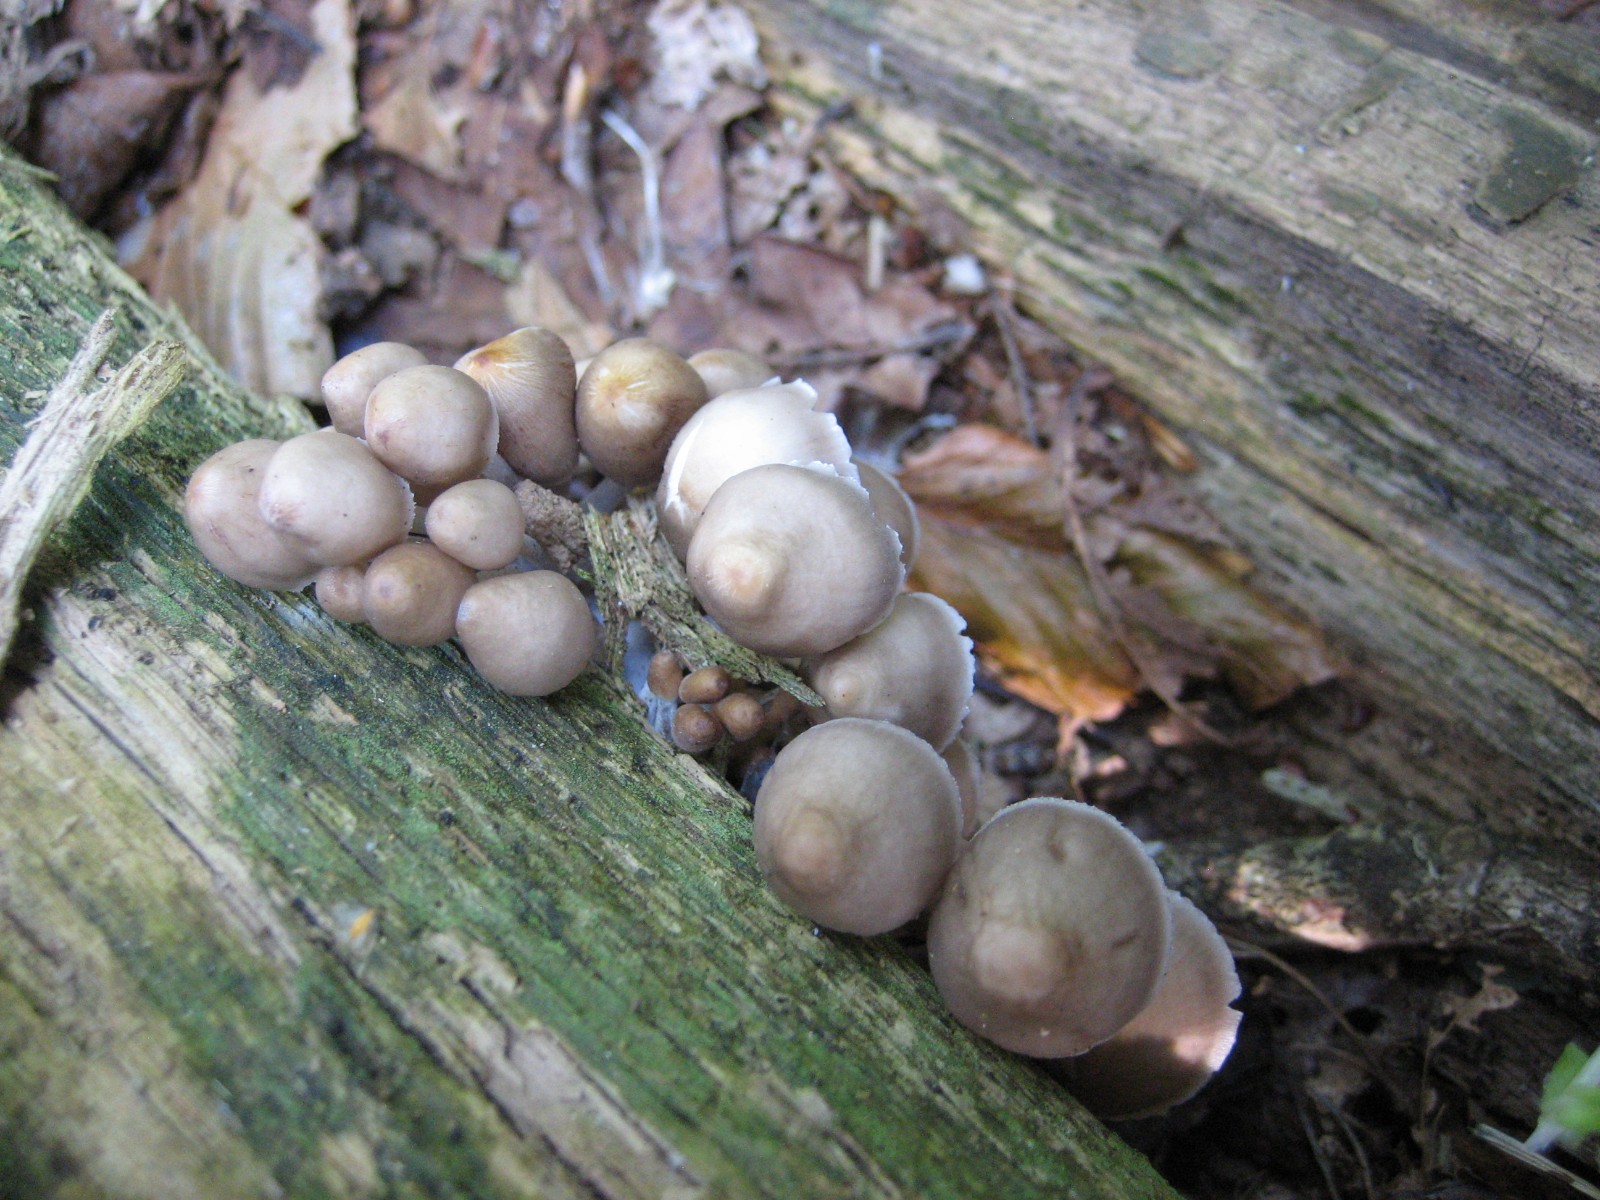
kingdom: Fungi
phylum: Basidiomycota
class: Agaricomycetes
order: Agaricales
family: Mycenaceae
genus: Mycena
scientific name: Mycena
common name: huesvamp
